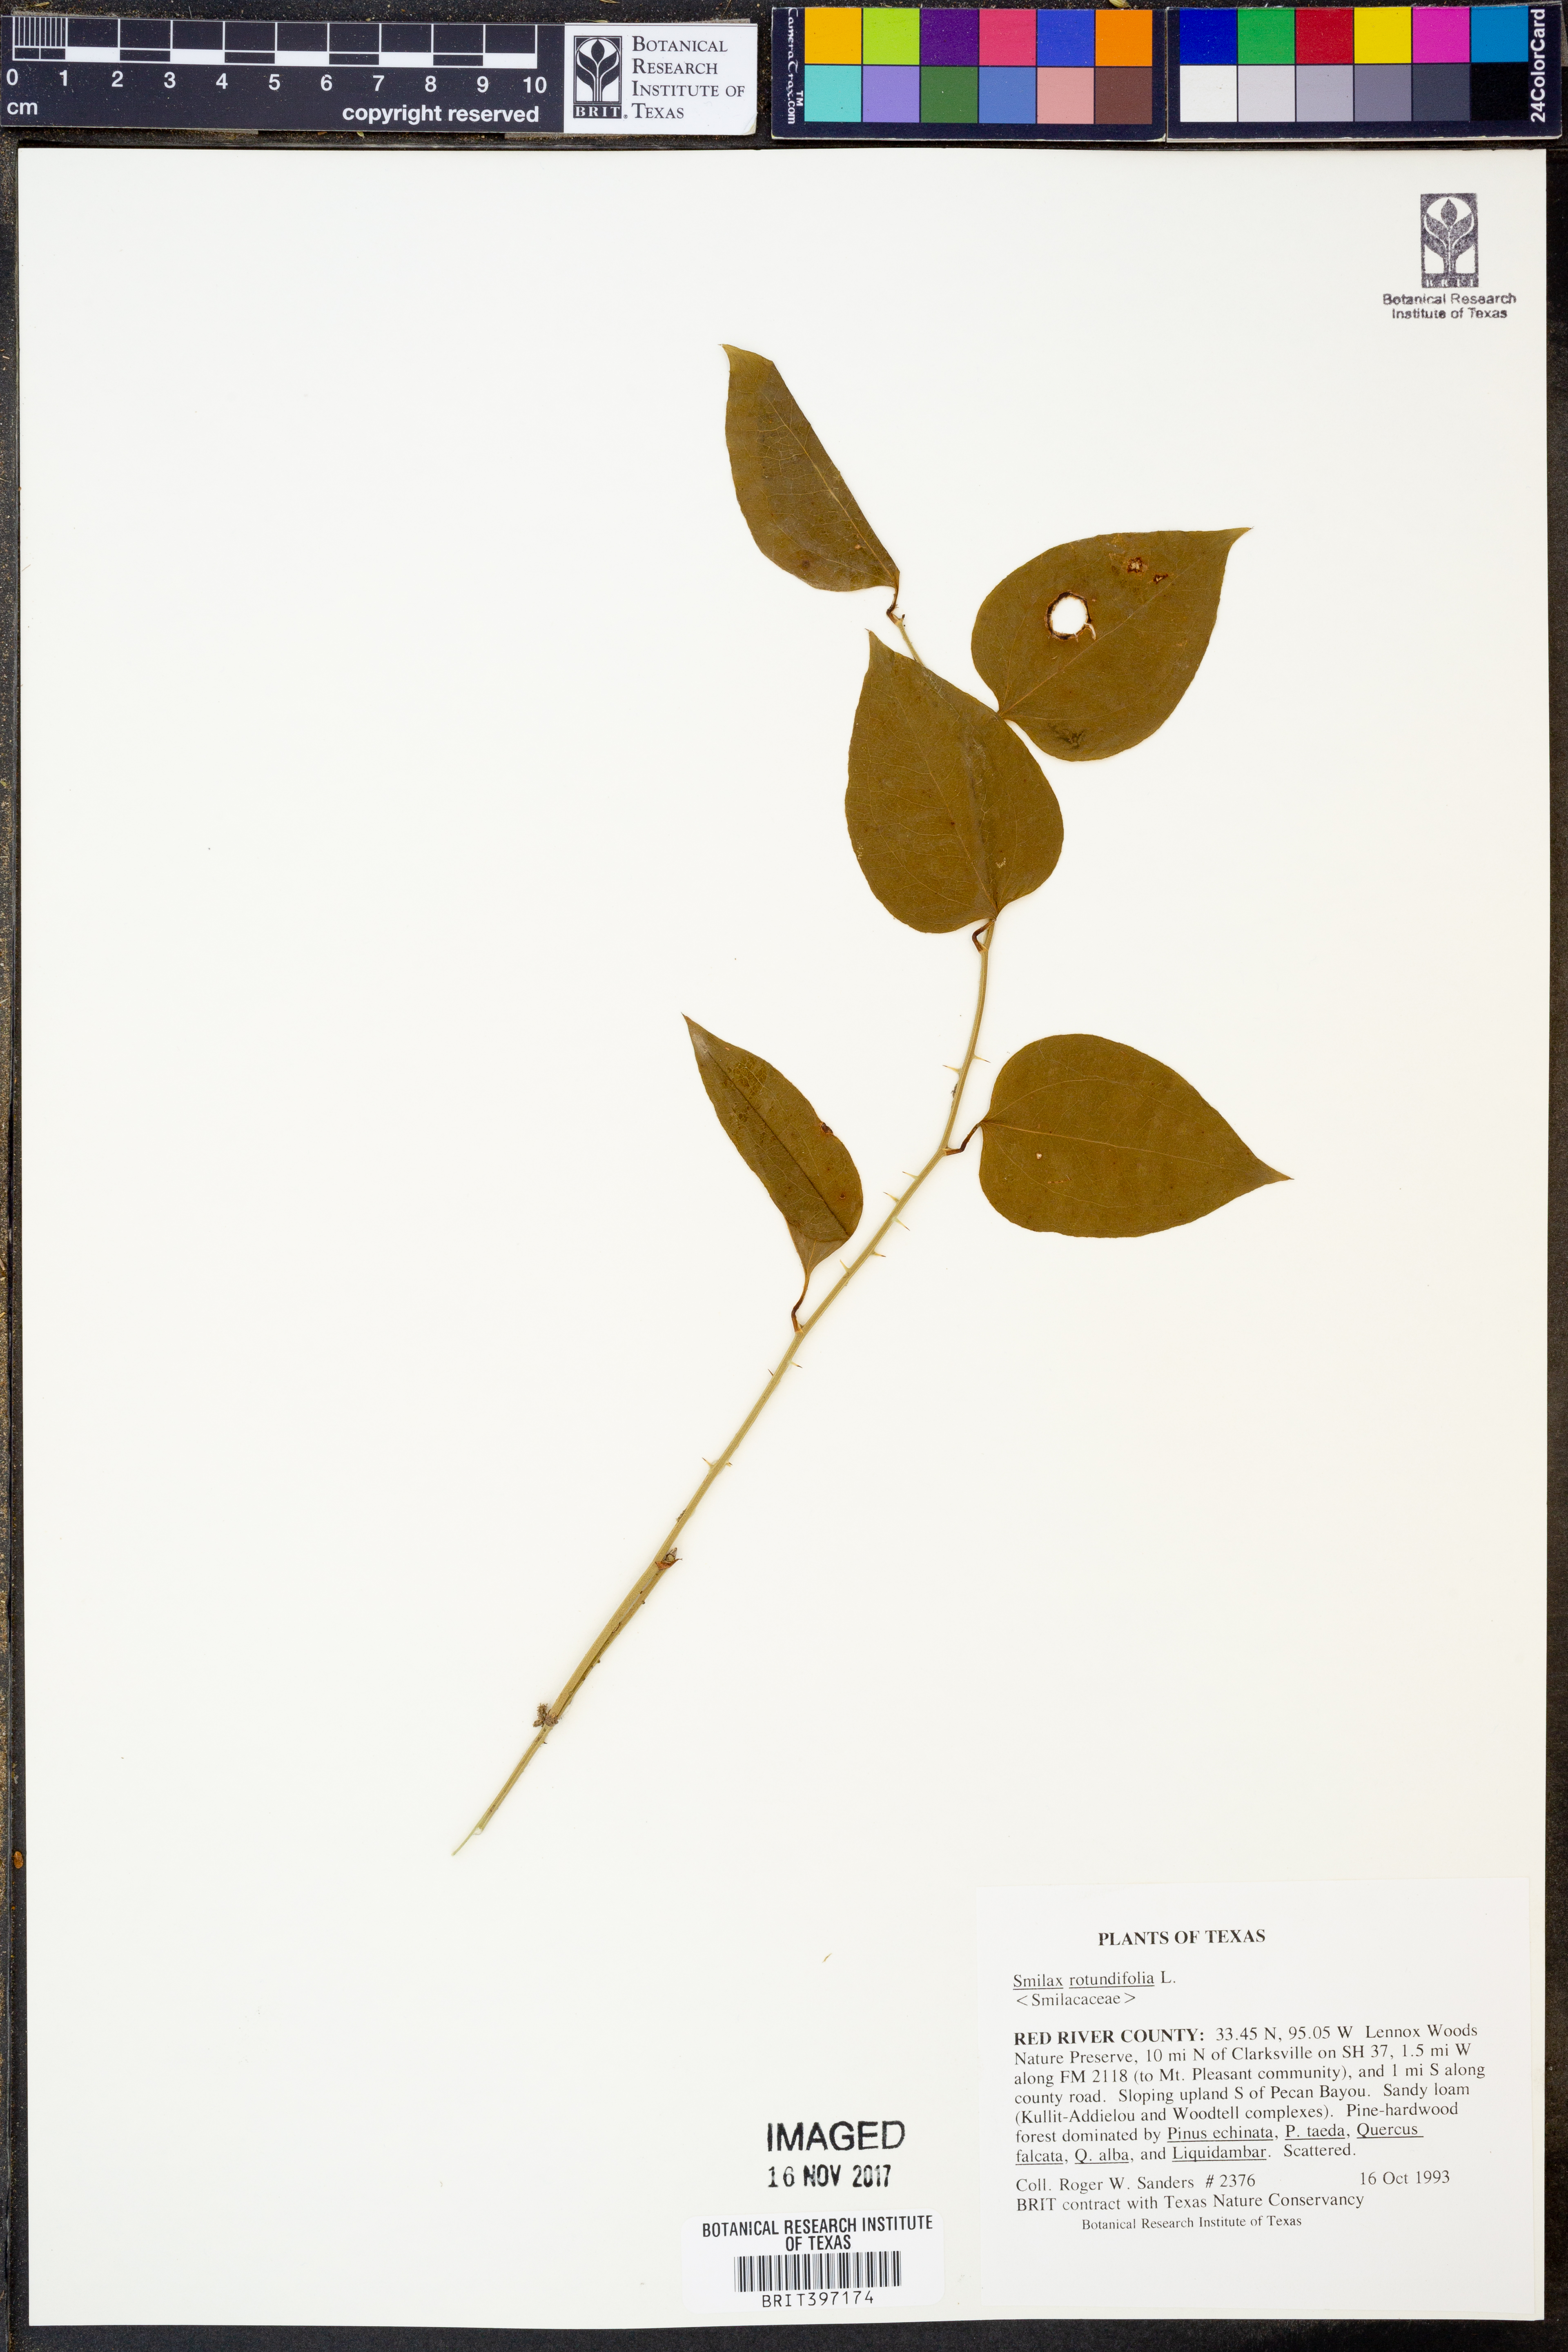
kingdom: Plantae
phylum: Tracheophyta
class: Liliopsida
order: Liliales
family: Smilacaceae
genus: Smilax
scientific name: Smilax rotundifolia
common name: Bullbriar
